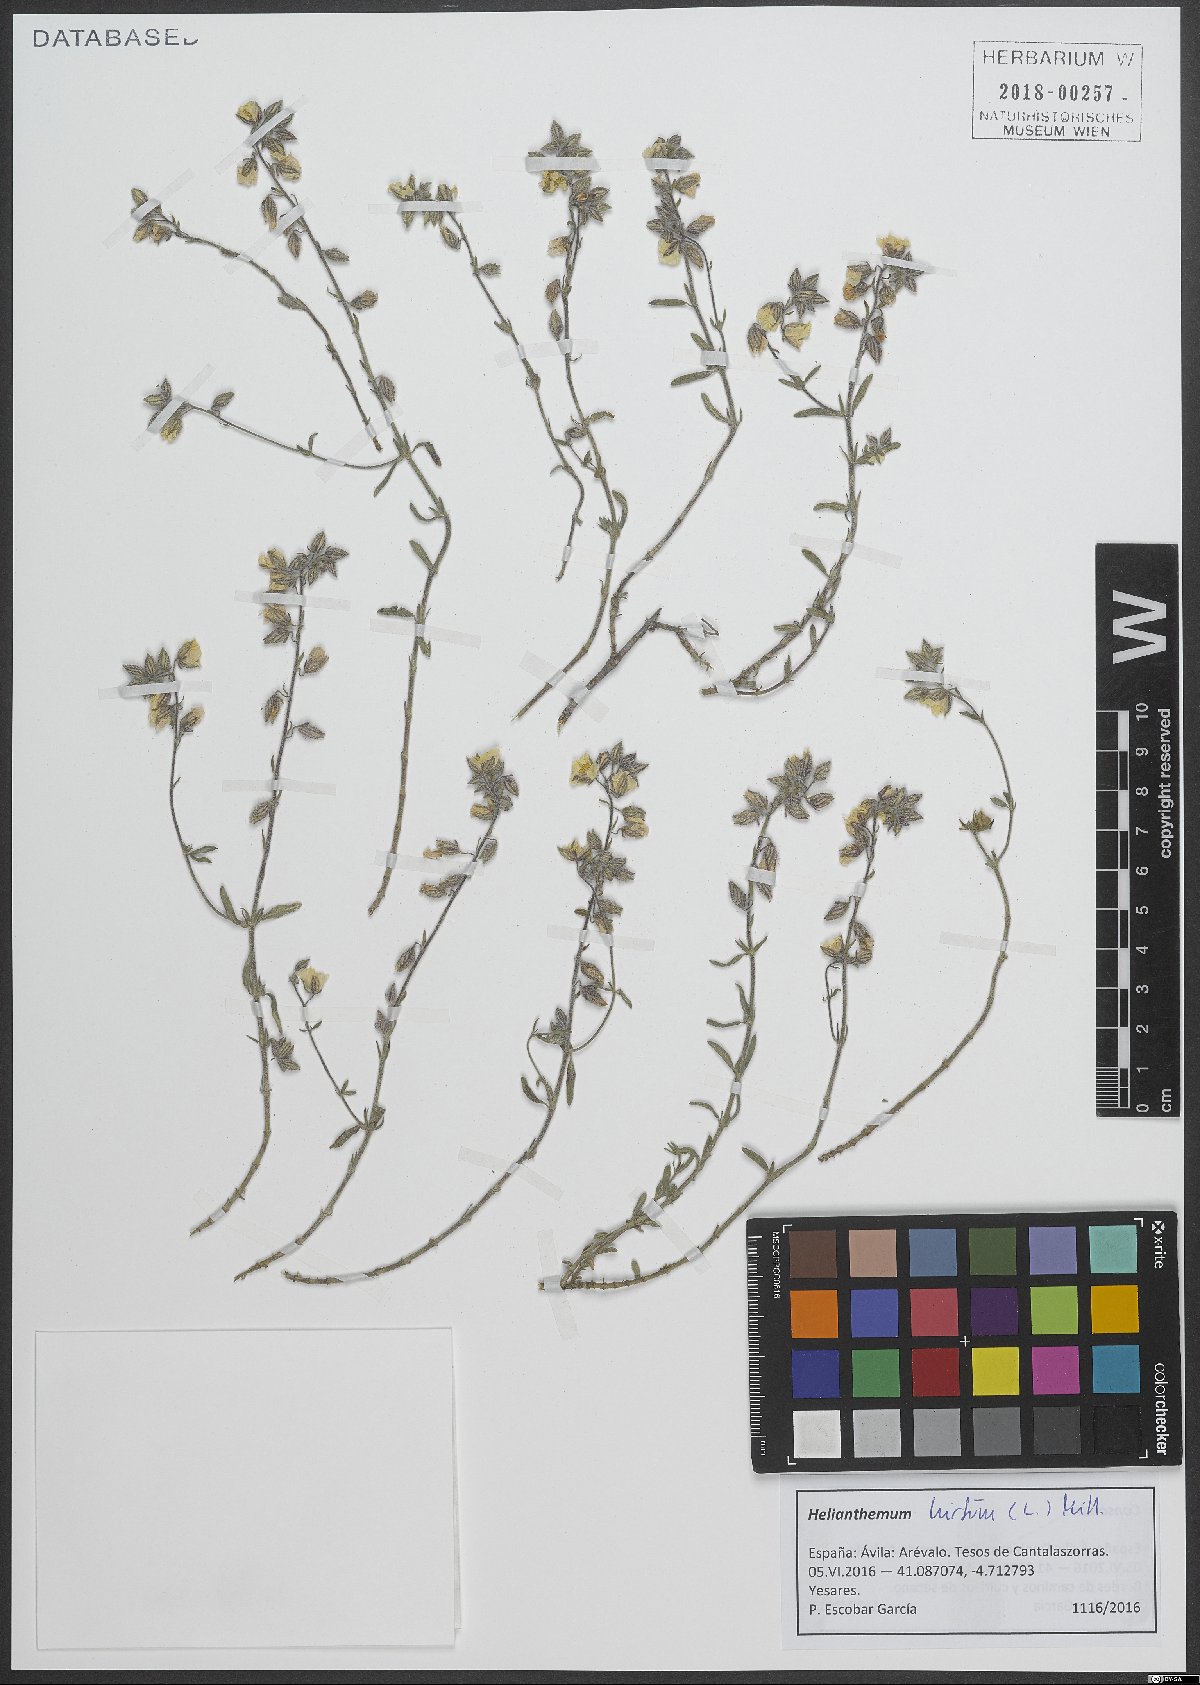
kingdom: Plantae
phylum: Tracheophyta
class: Magnoliopsida
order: Malvales
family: Cistaceae
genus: Helianthemum
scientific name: Helianthemum hirtum
